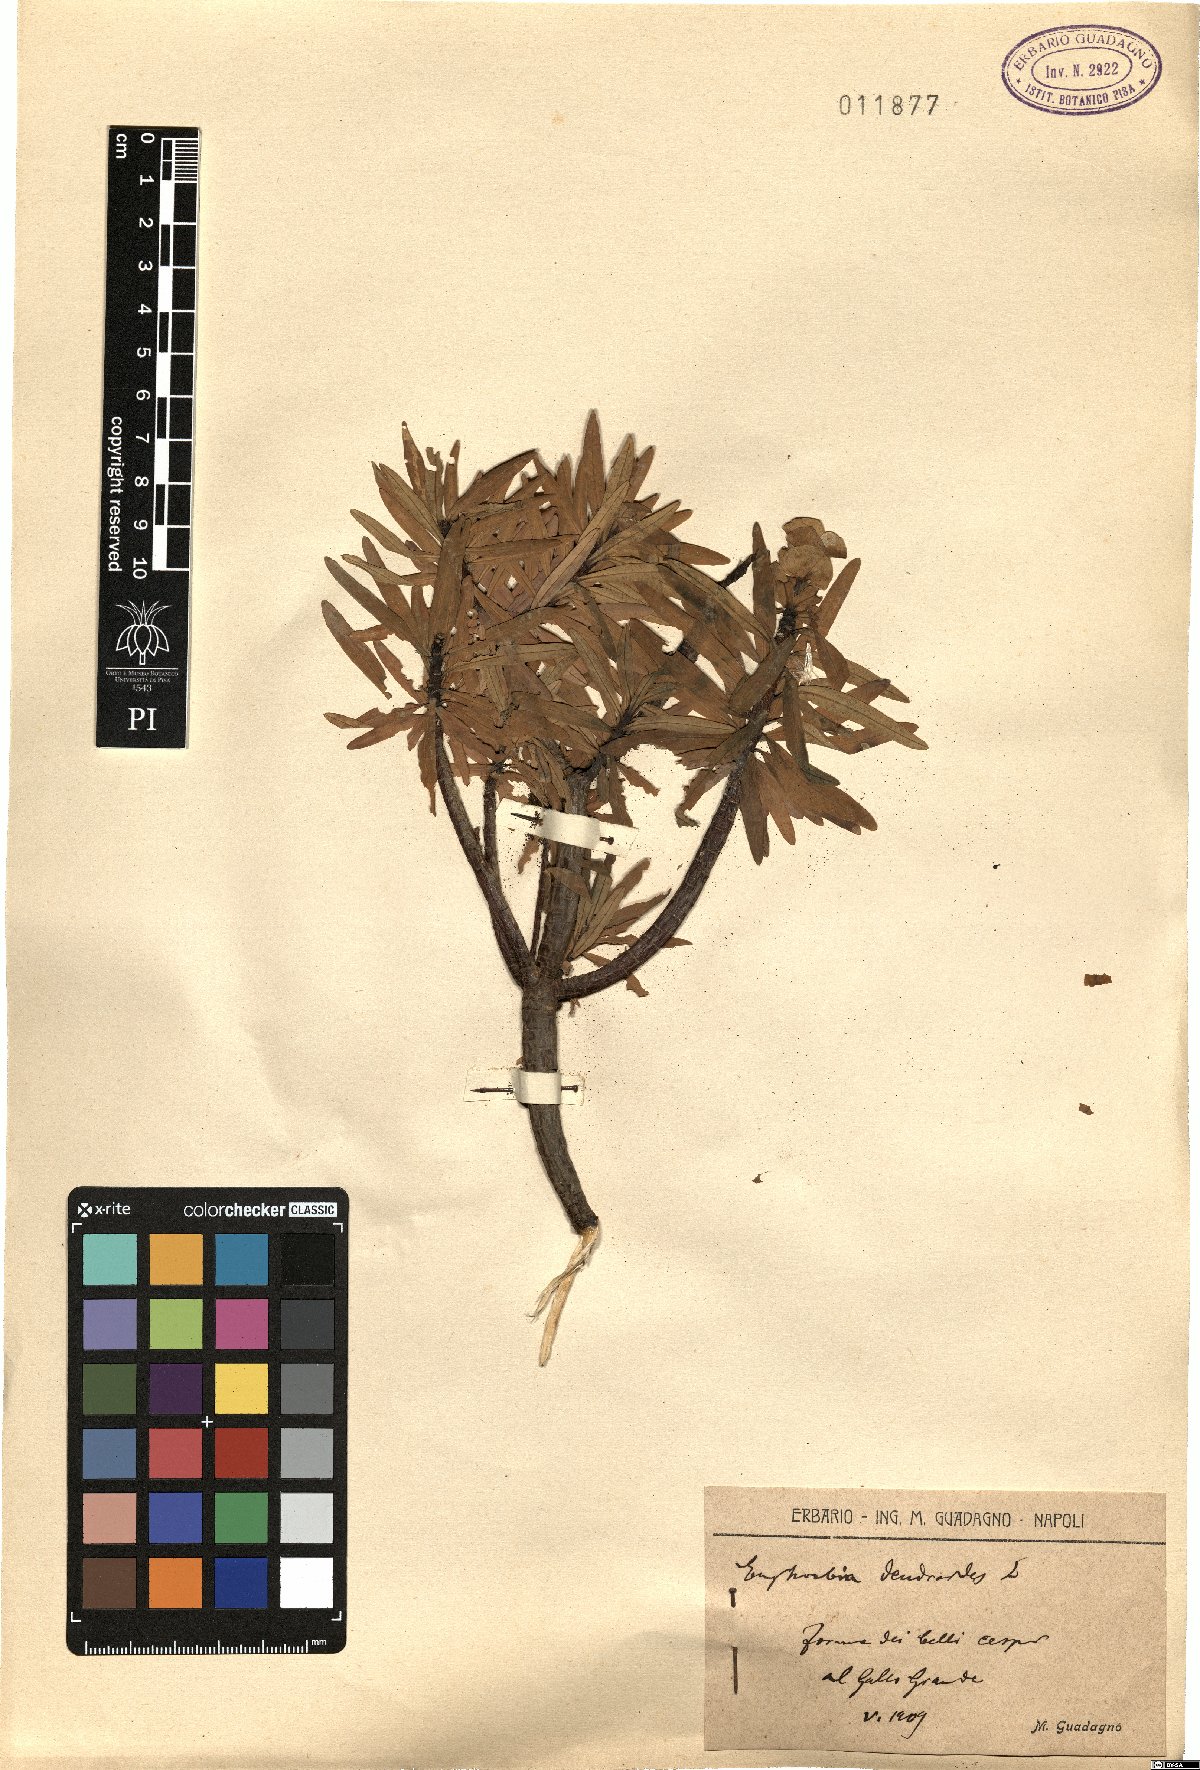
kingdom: Plantae
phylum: Tracheophyta
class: Magnoliopsida
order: Malpighiales
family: Euphorbiaceae
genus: Euphorbia
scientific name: Euphorbia dendroides
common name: Tree spurge
